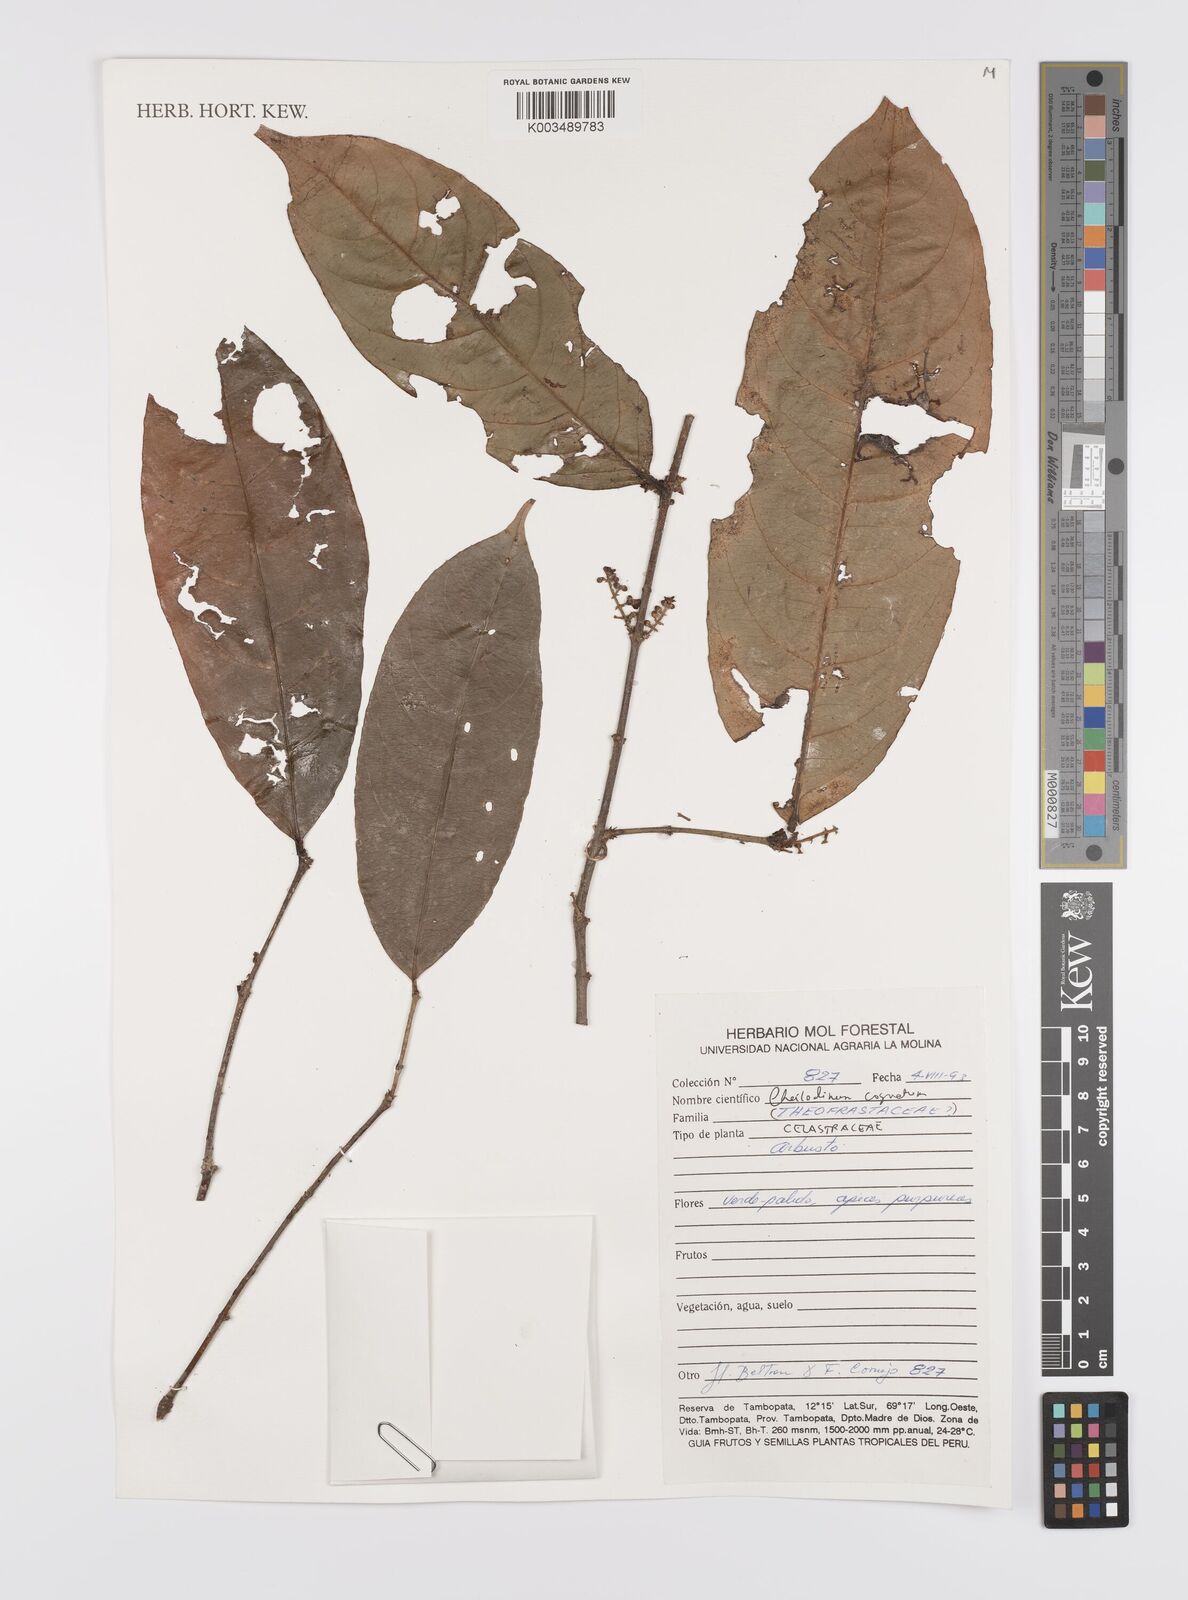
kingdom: Plantae
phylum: Tracheophyta
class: Magnoliopsida
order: Celastrales
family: Celastraceae
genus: Cheiloclinium
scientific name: Cheiloclinium cognatum
